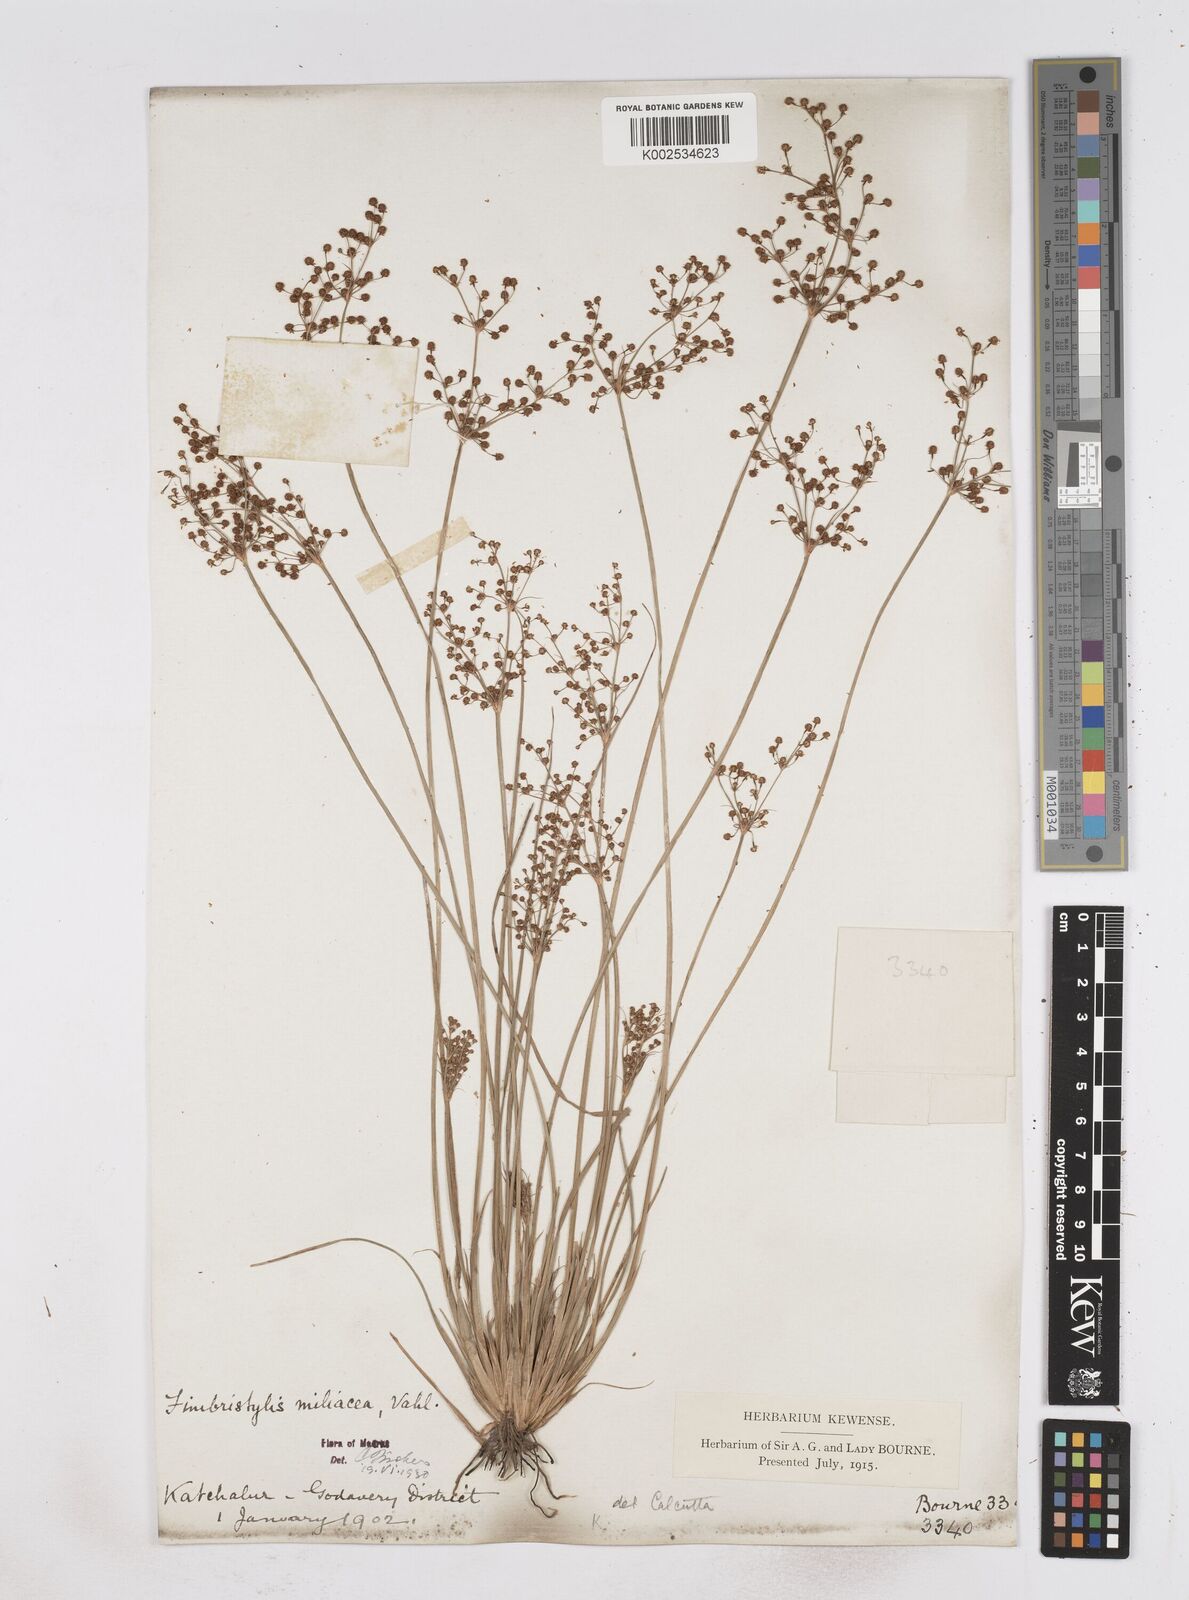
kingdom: Plantae
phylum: Tracheophyta
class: Liliopsida
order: Poales
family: Cyperaceae
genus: Fimbristylis
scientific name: Fimbristylis littoralis
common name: Fimbry
